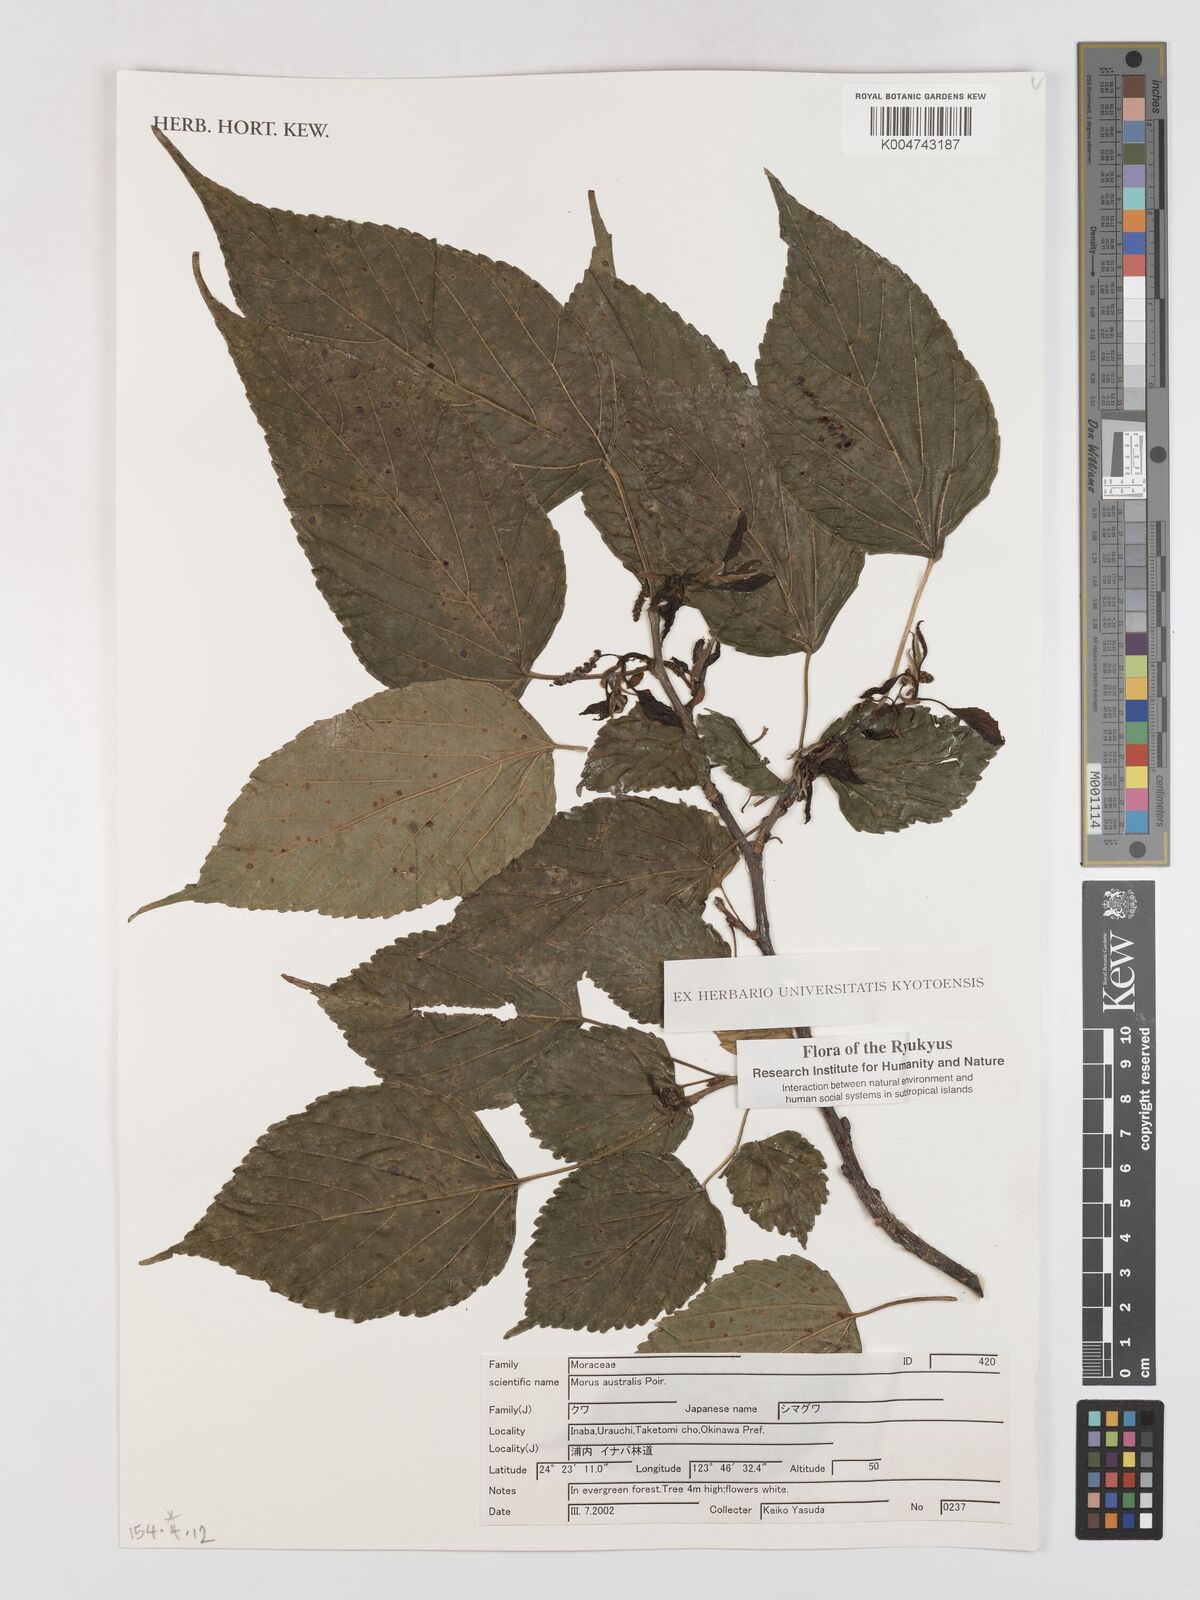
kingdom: Plantae
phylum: Tracheophyta
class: Magnoliopsida
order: Rosales
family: Moraceae
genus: Broussonetia
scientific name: Broussonetia papyrifera
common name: Paper mulberry
